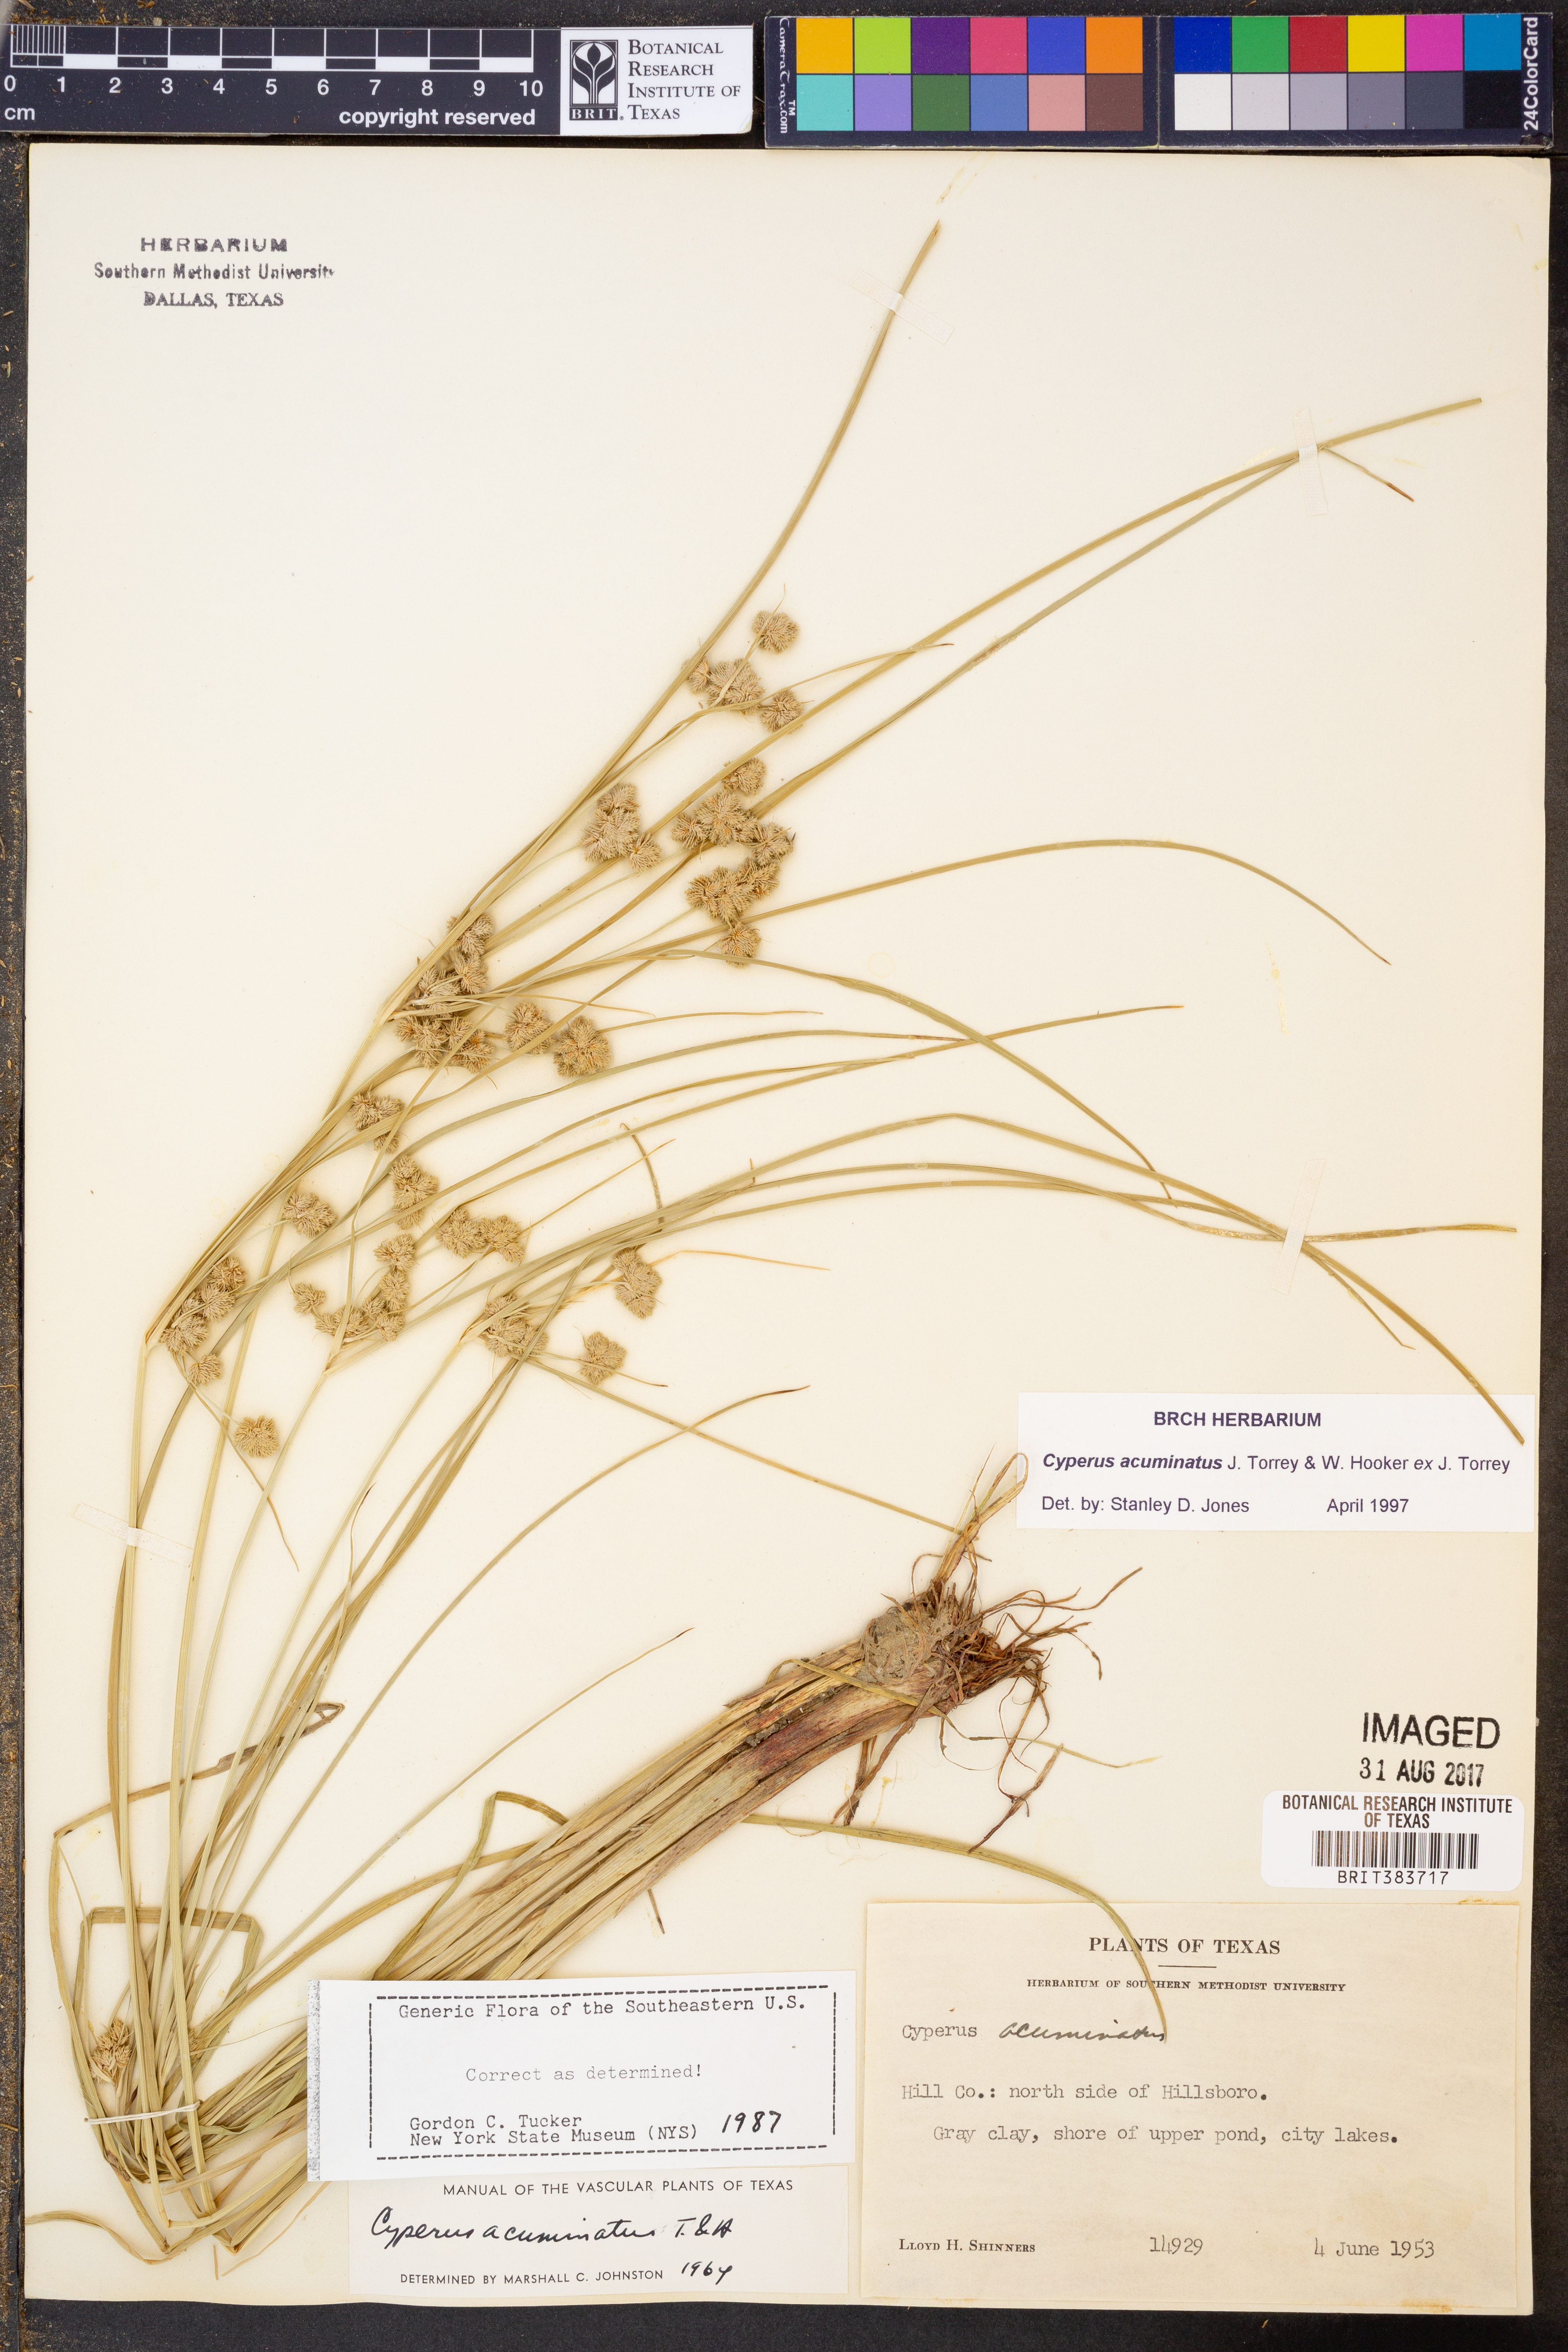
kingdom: Plantae
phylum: Tracheophyta
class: Liliopsida
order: Poales
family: Cyperaceae
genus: Cyperus
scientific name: Cyperus acuminatus
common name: Short-pointed cyperus
